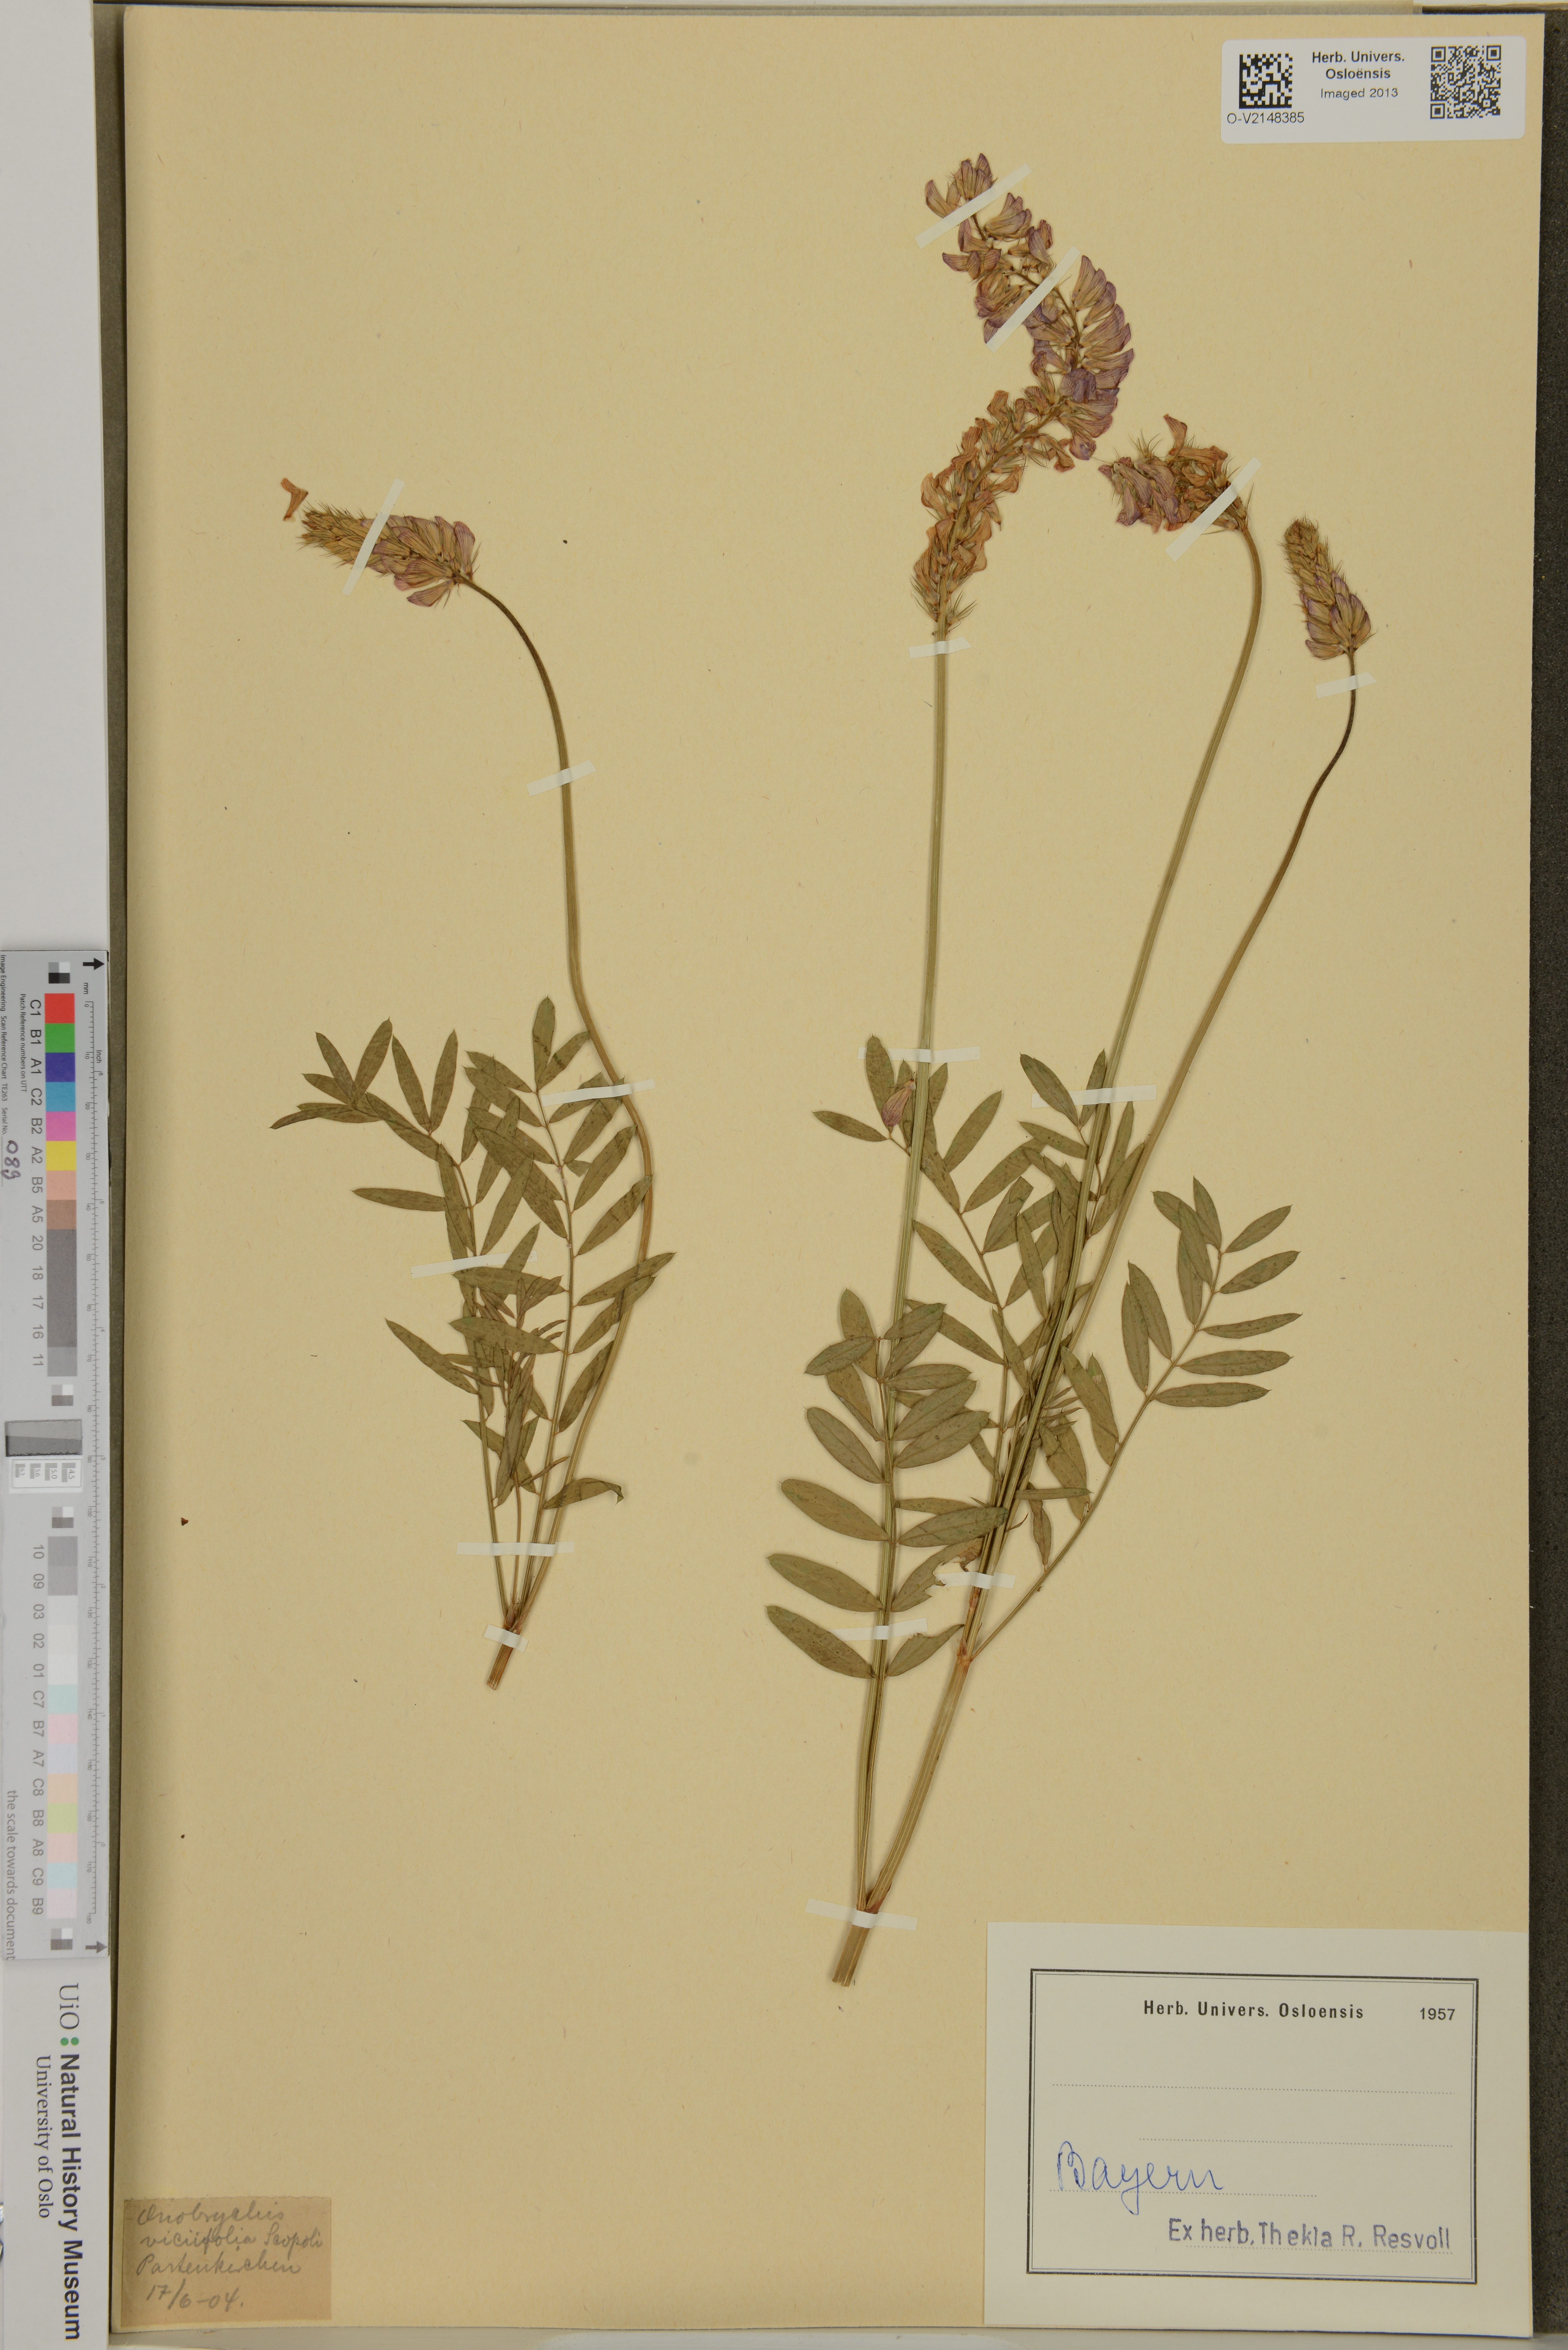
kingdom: Plantae
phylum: Tracheophyta
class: Magnoliopsida
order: Fabales
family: Fabaceae
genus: Onobrychis
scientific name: Onobrychis viciifolia
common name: Sainfoin
